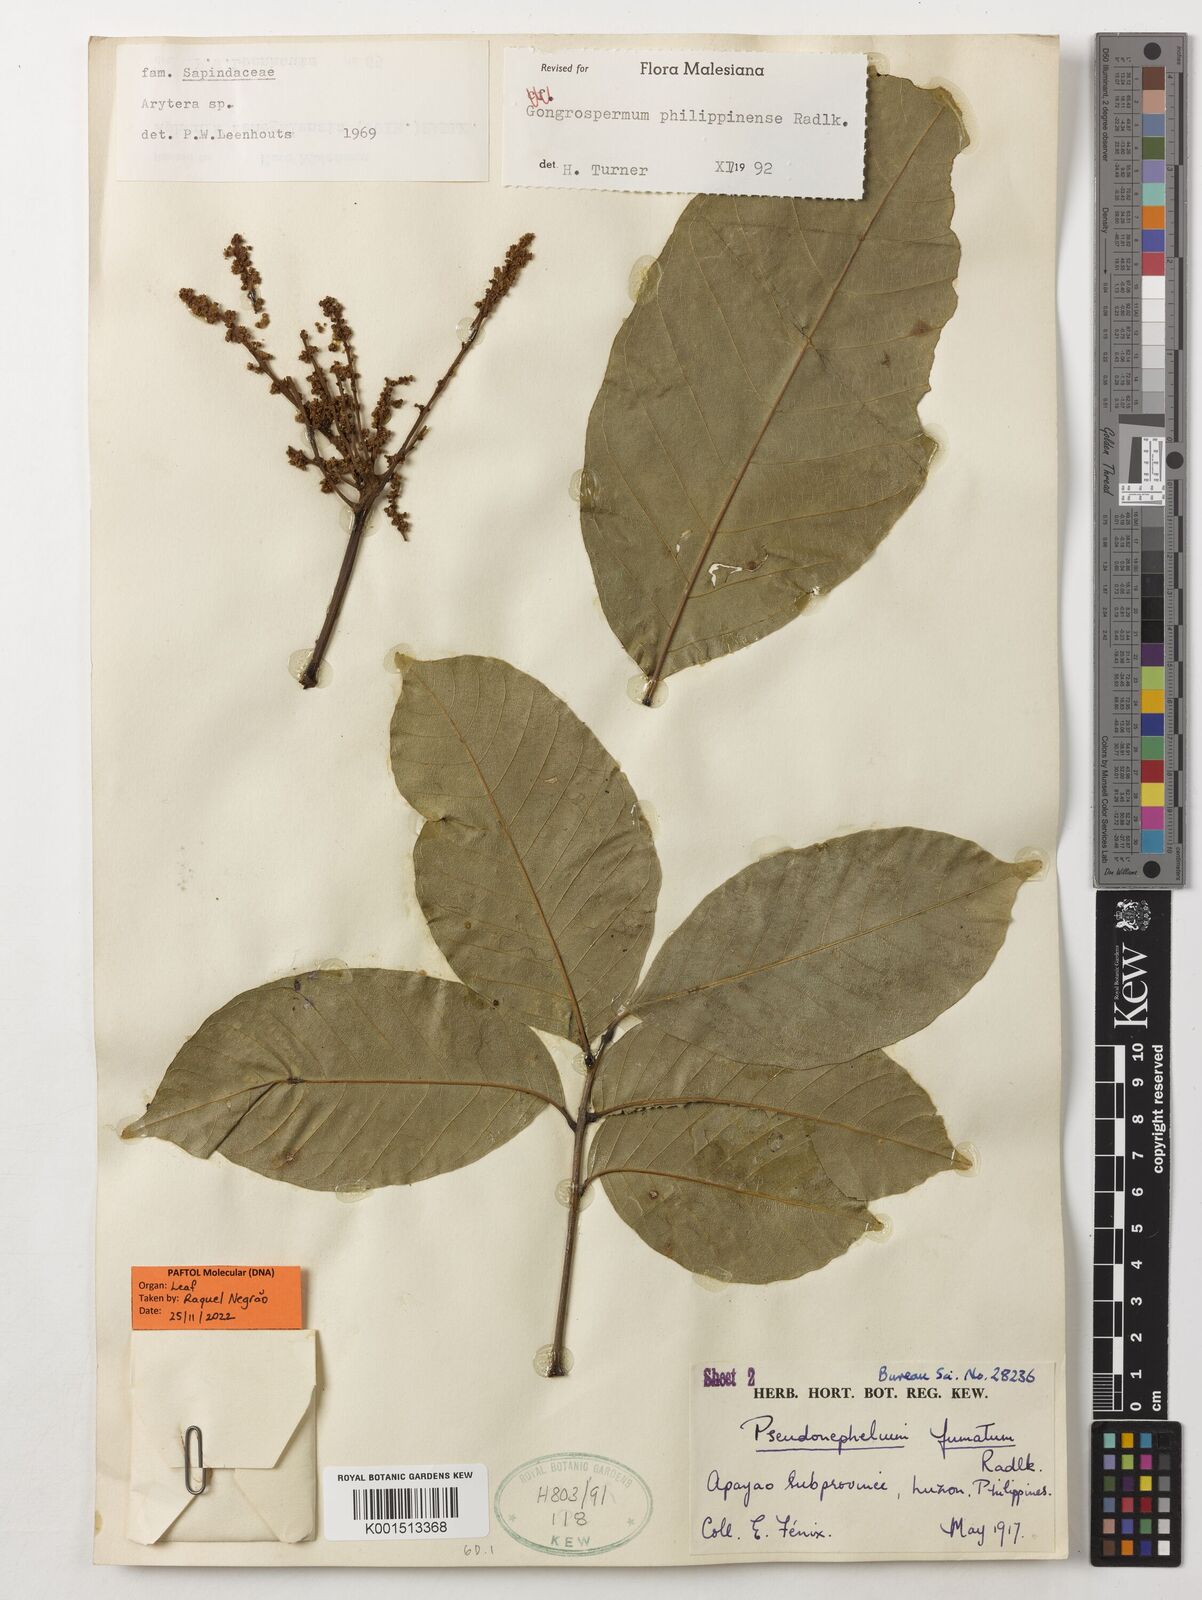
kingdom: Plantae
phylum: Tracheophyta
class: Magnoliopsida
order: Sapindales
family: Sapindaceae
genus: Gongrospermum
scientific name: Gongrospermum philippinense
